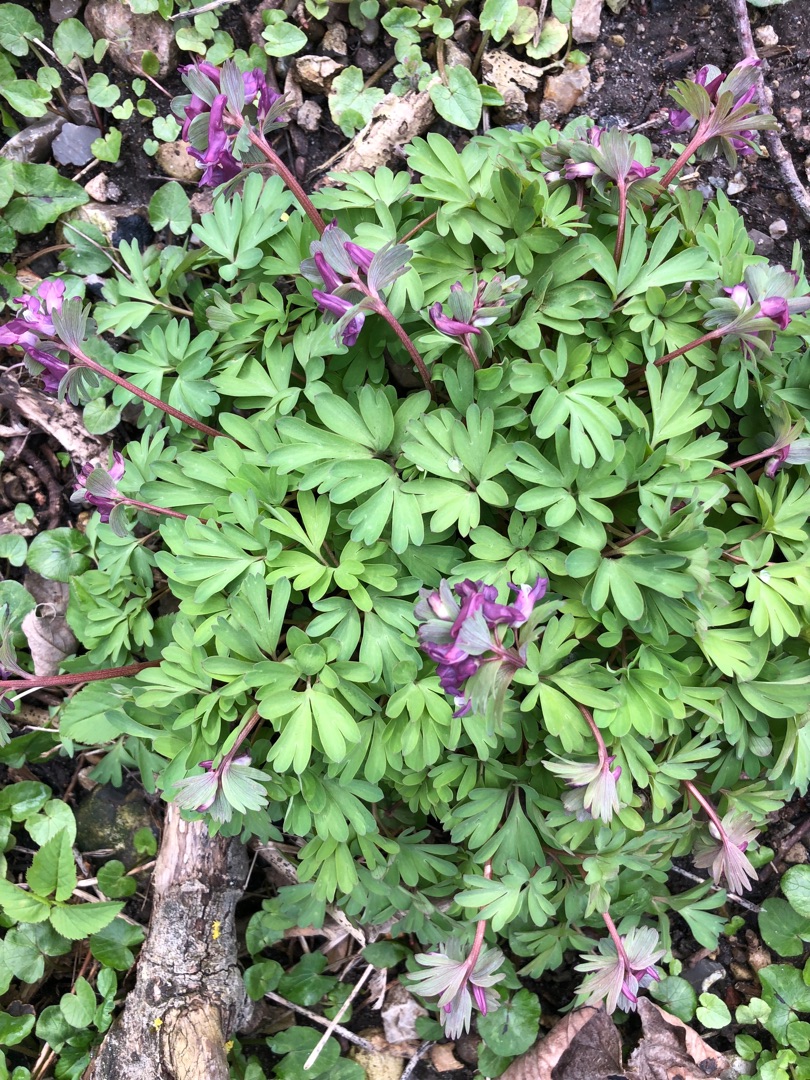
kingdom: Plantae
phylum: Tracheophyta
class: Magnoliopsida
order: Ranunculales
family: Papaveraceae
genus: Corydalis
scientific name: Corydalis solida
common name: Langstilket lærkespore
